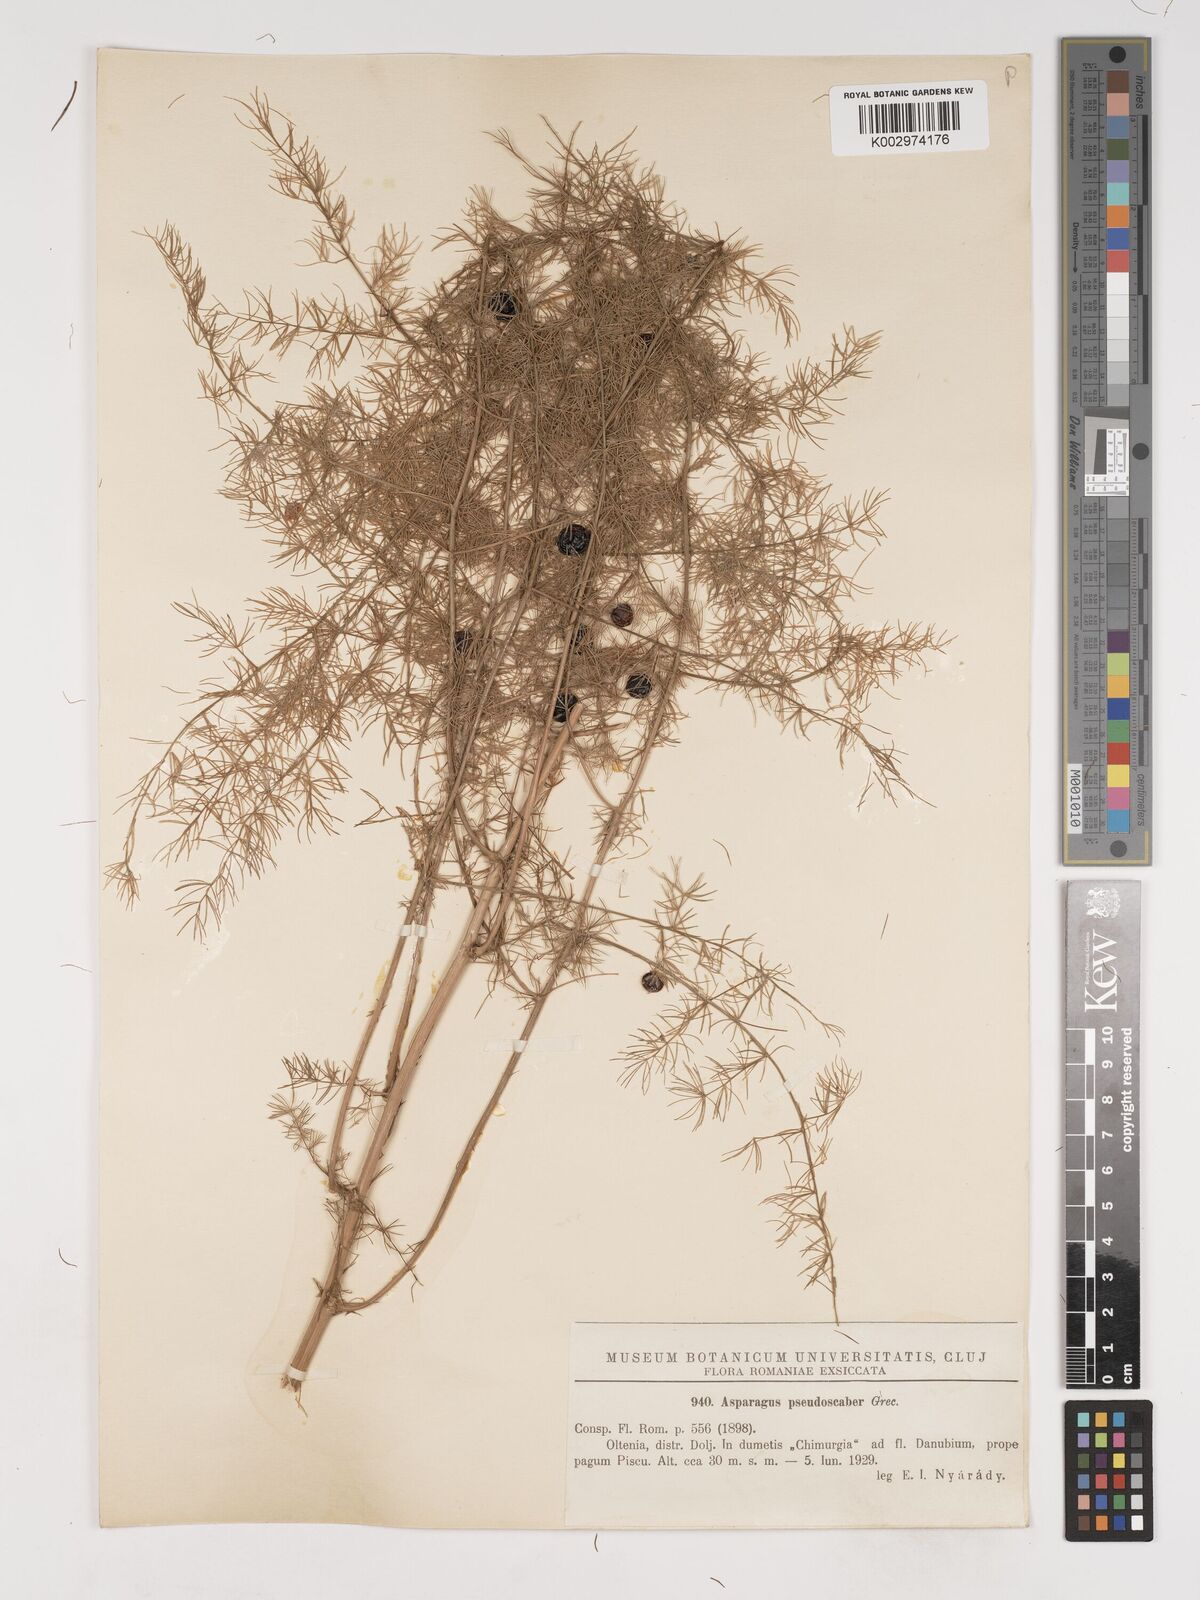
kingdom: Plantae
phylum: Tracheophyta
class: Liliopsida
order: Asparagales
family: Asparagaceae
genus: Asparagus
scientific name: Asparagus pseudoscaber
